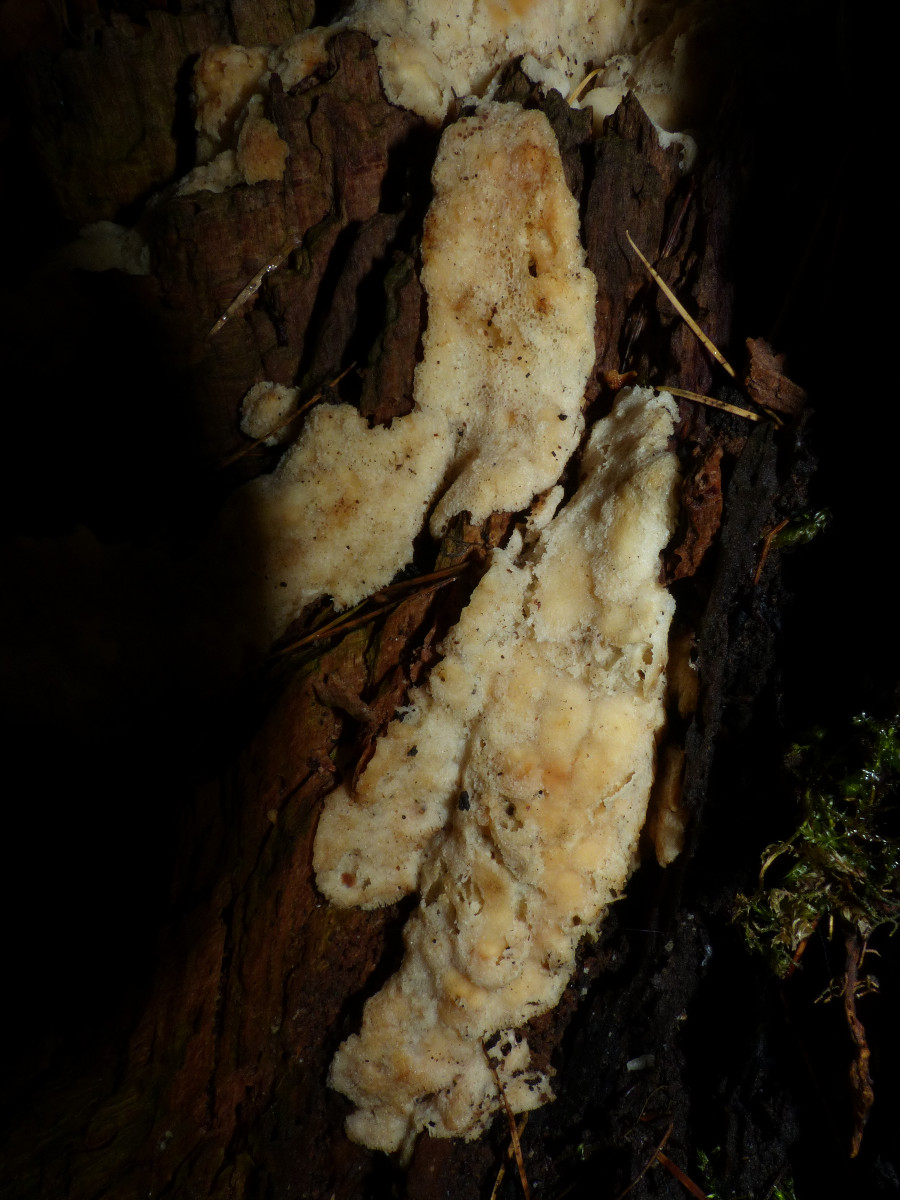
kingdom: Fungi
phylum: Basidiomycota
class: Agaricomycetes
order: Polyporales
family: Meruliaceae
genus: Physisporinus
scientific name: Physisporinus
